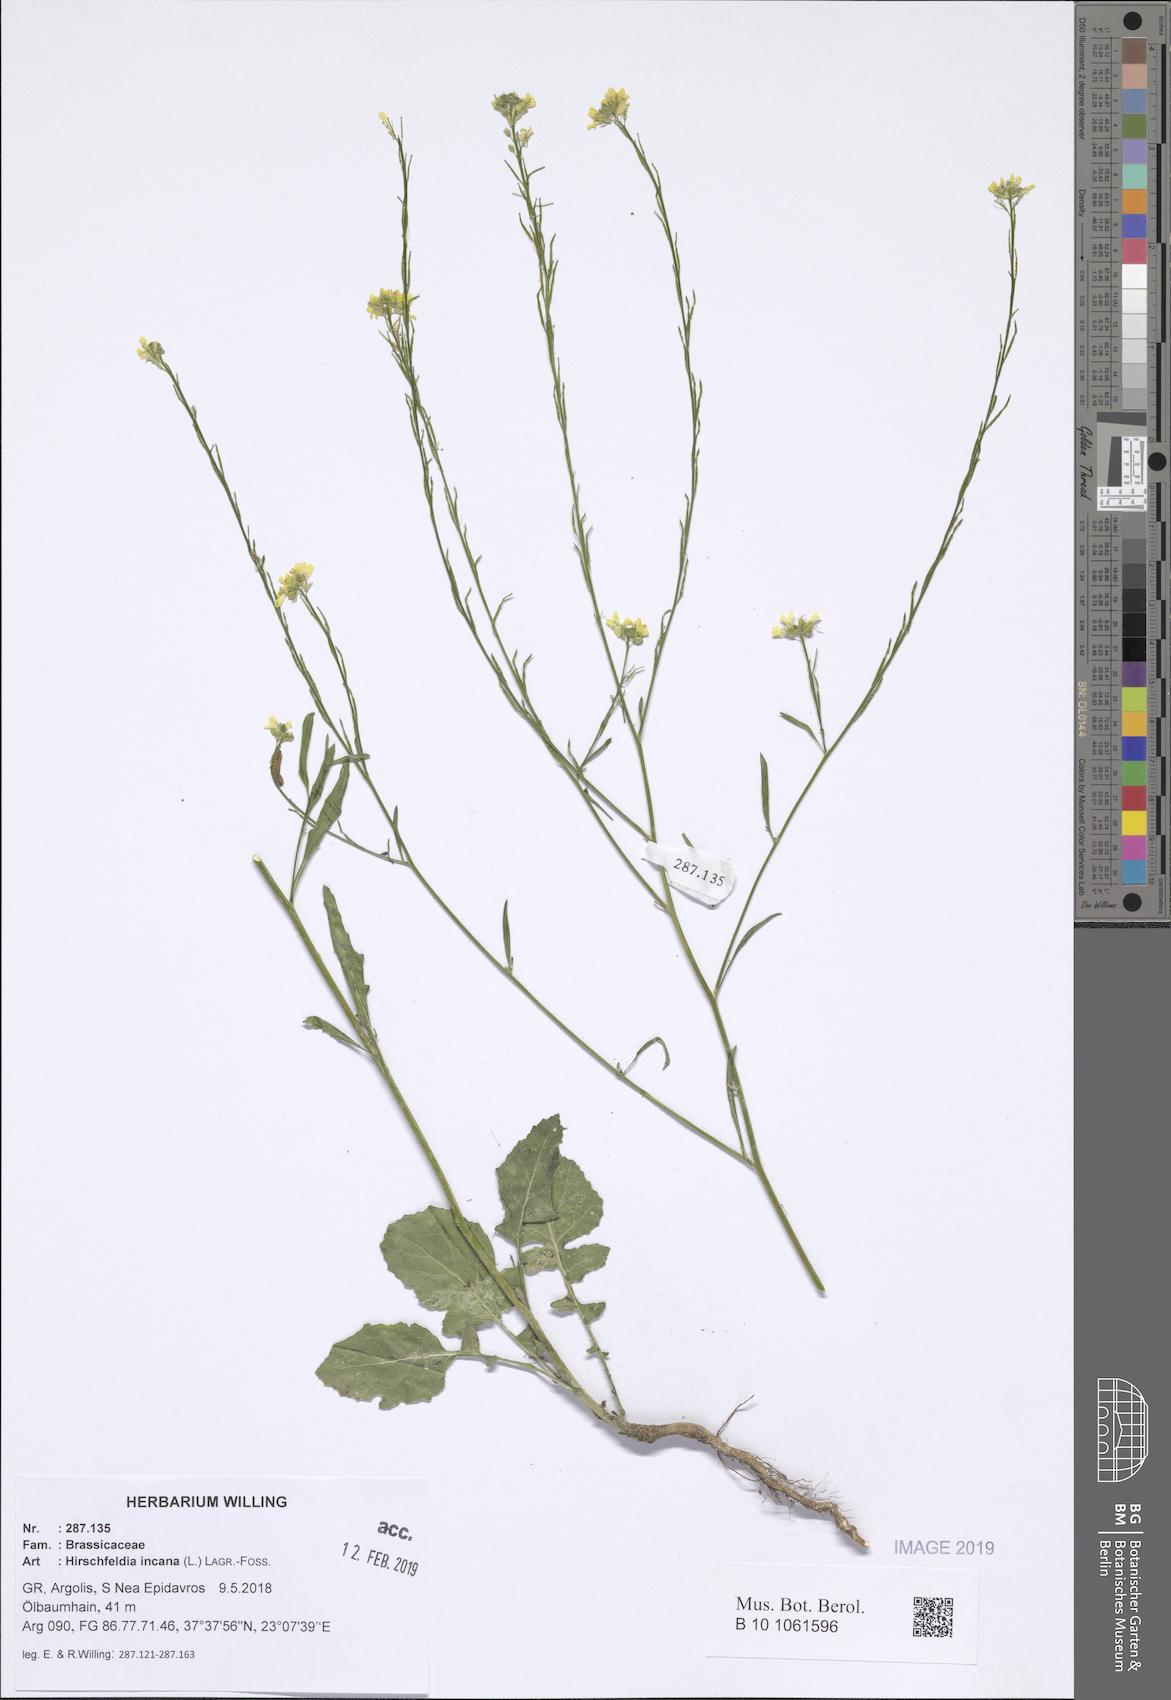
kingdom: Plantae
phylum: Tracheophyta
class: Magnoliopsida
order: Brassicales
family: Brassicaceae
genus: Hirschfeldia
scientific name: Hirschfeldia incana
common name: Hoary mustard
